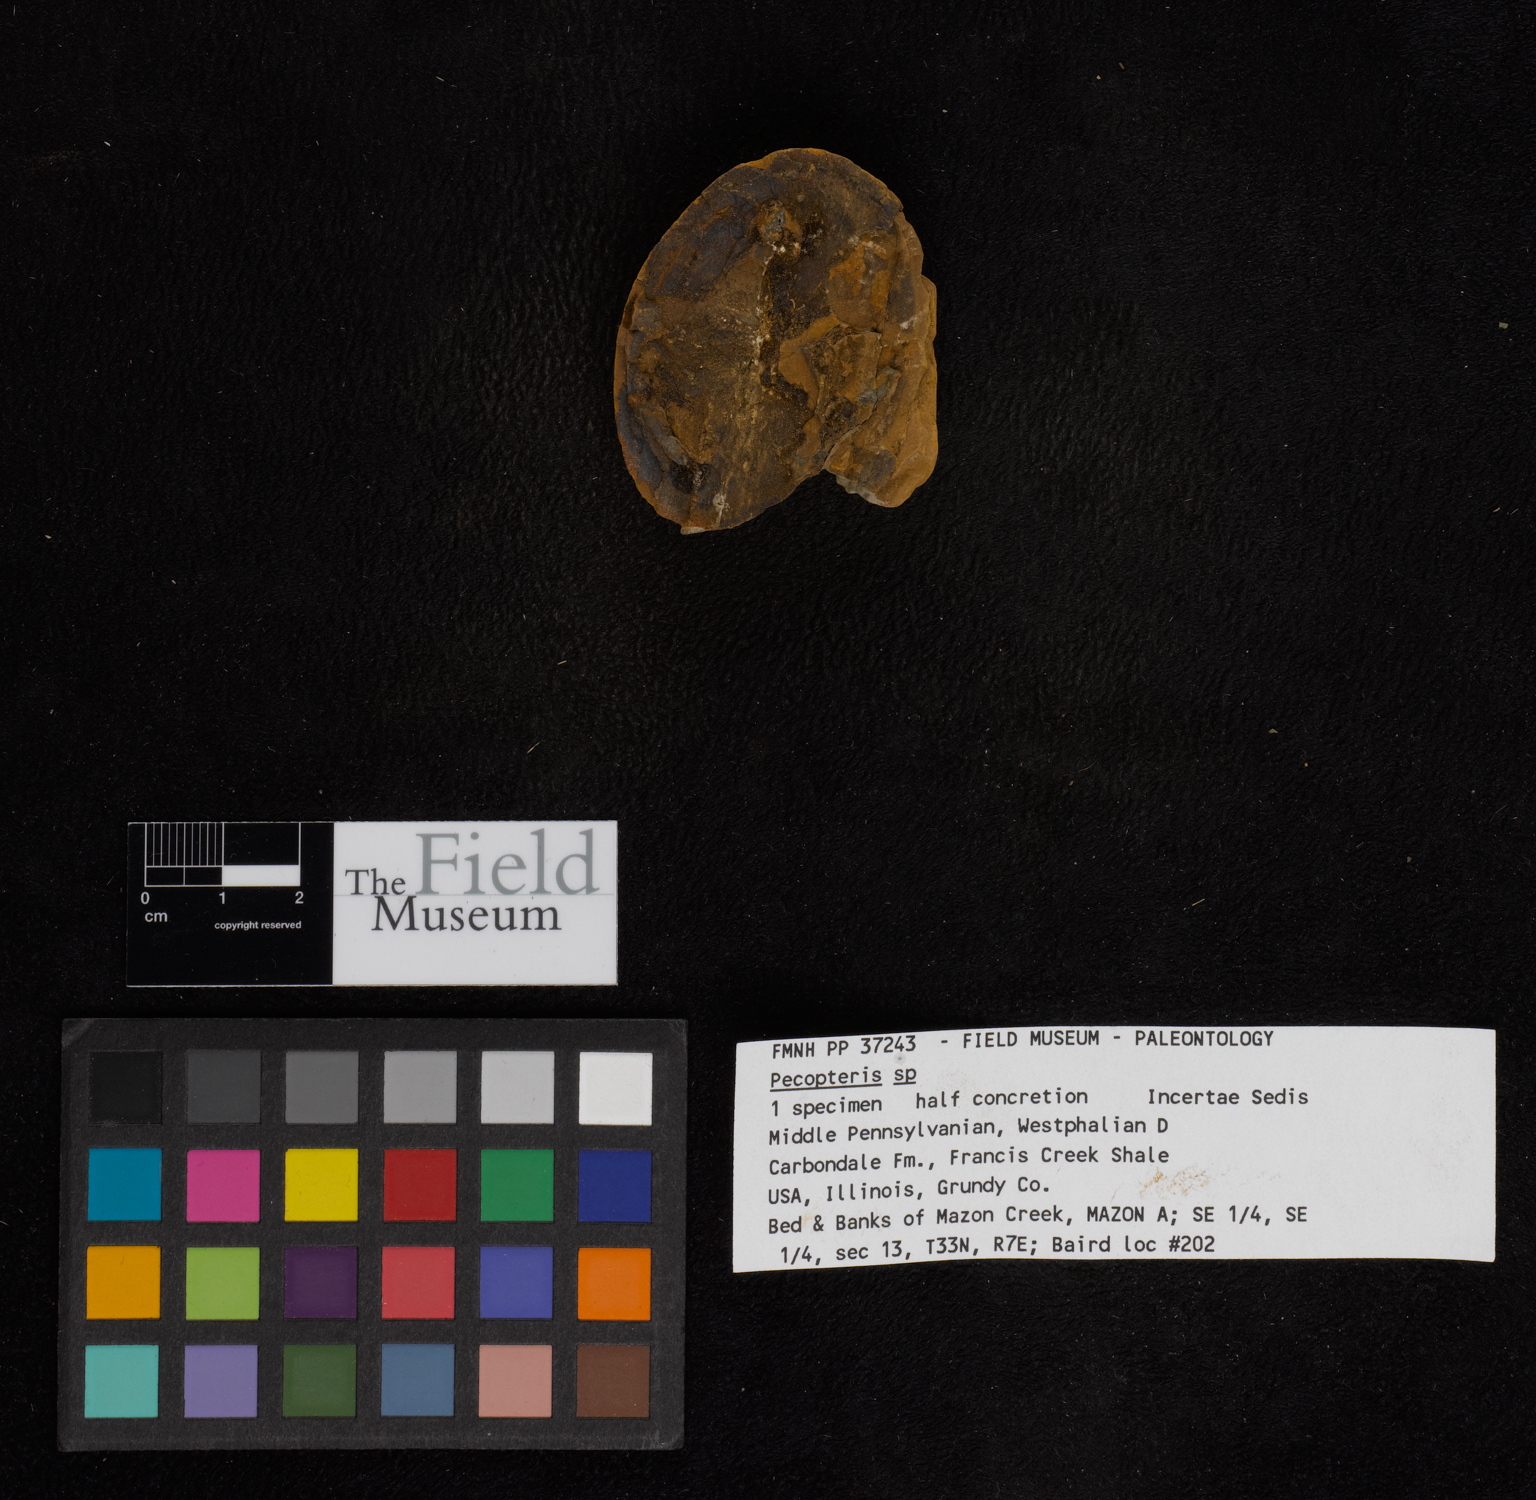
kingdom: Plantae
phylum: Tracheophyta
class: Polypodiopsida
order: Marattiales
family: Asterothecaceae
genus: Pecopteris
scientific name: Pecopteris
